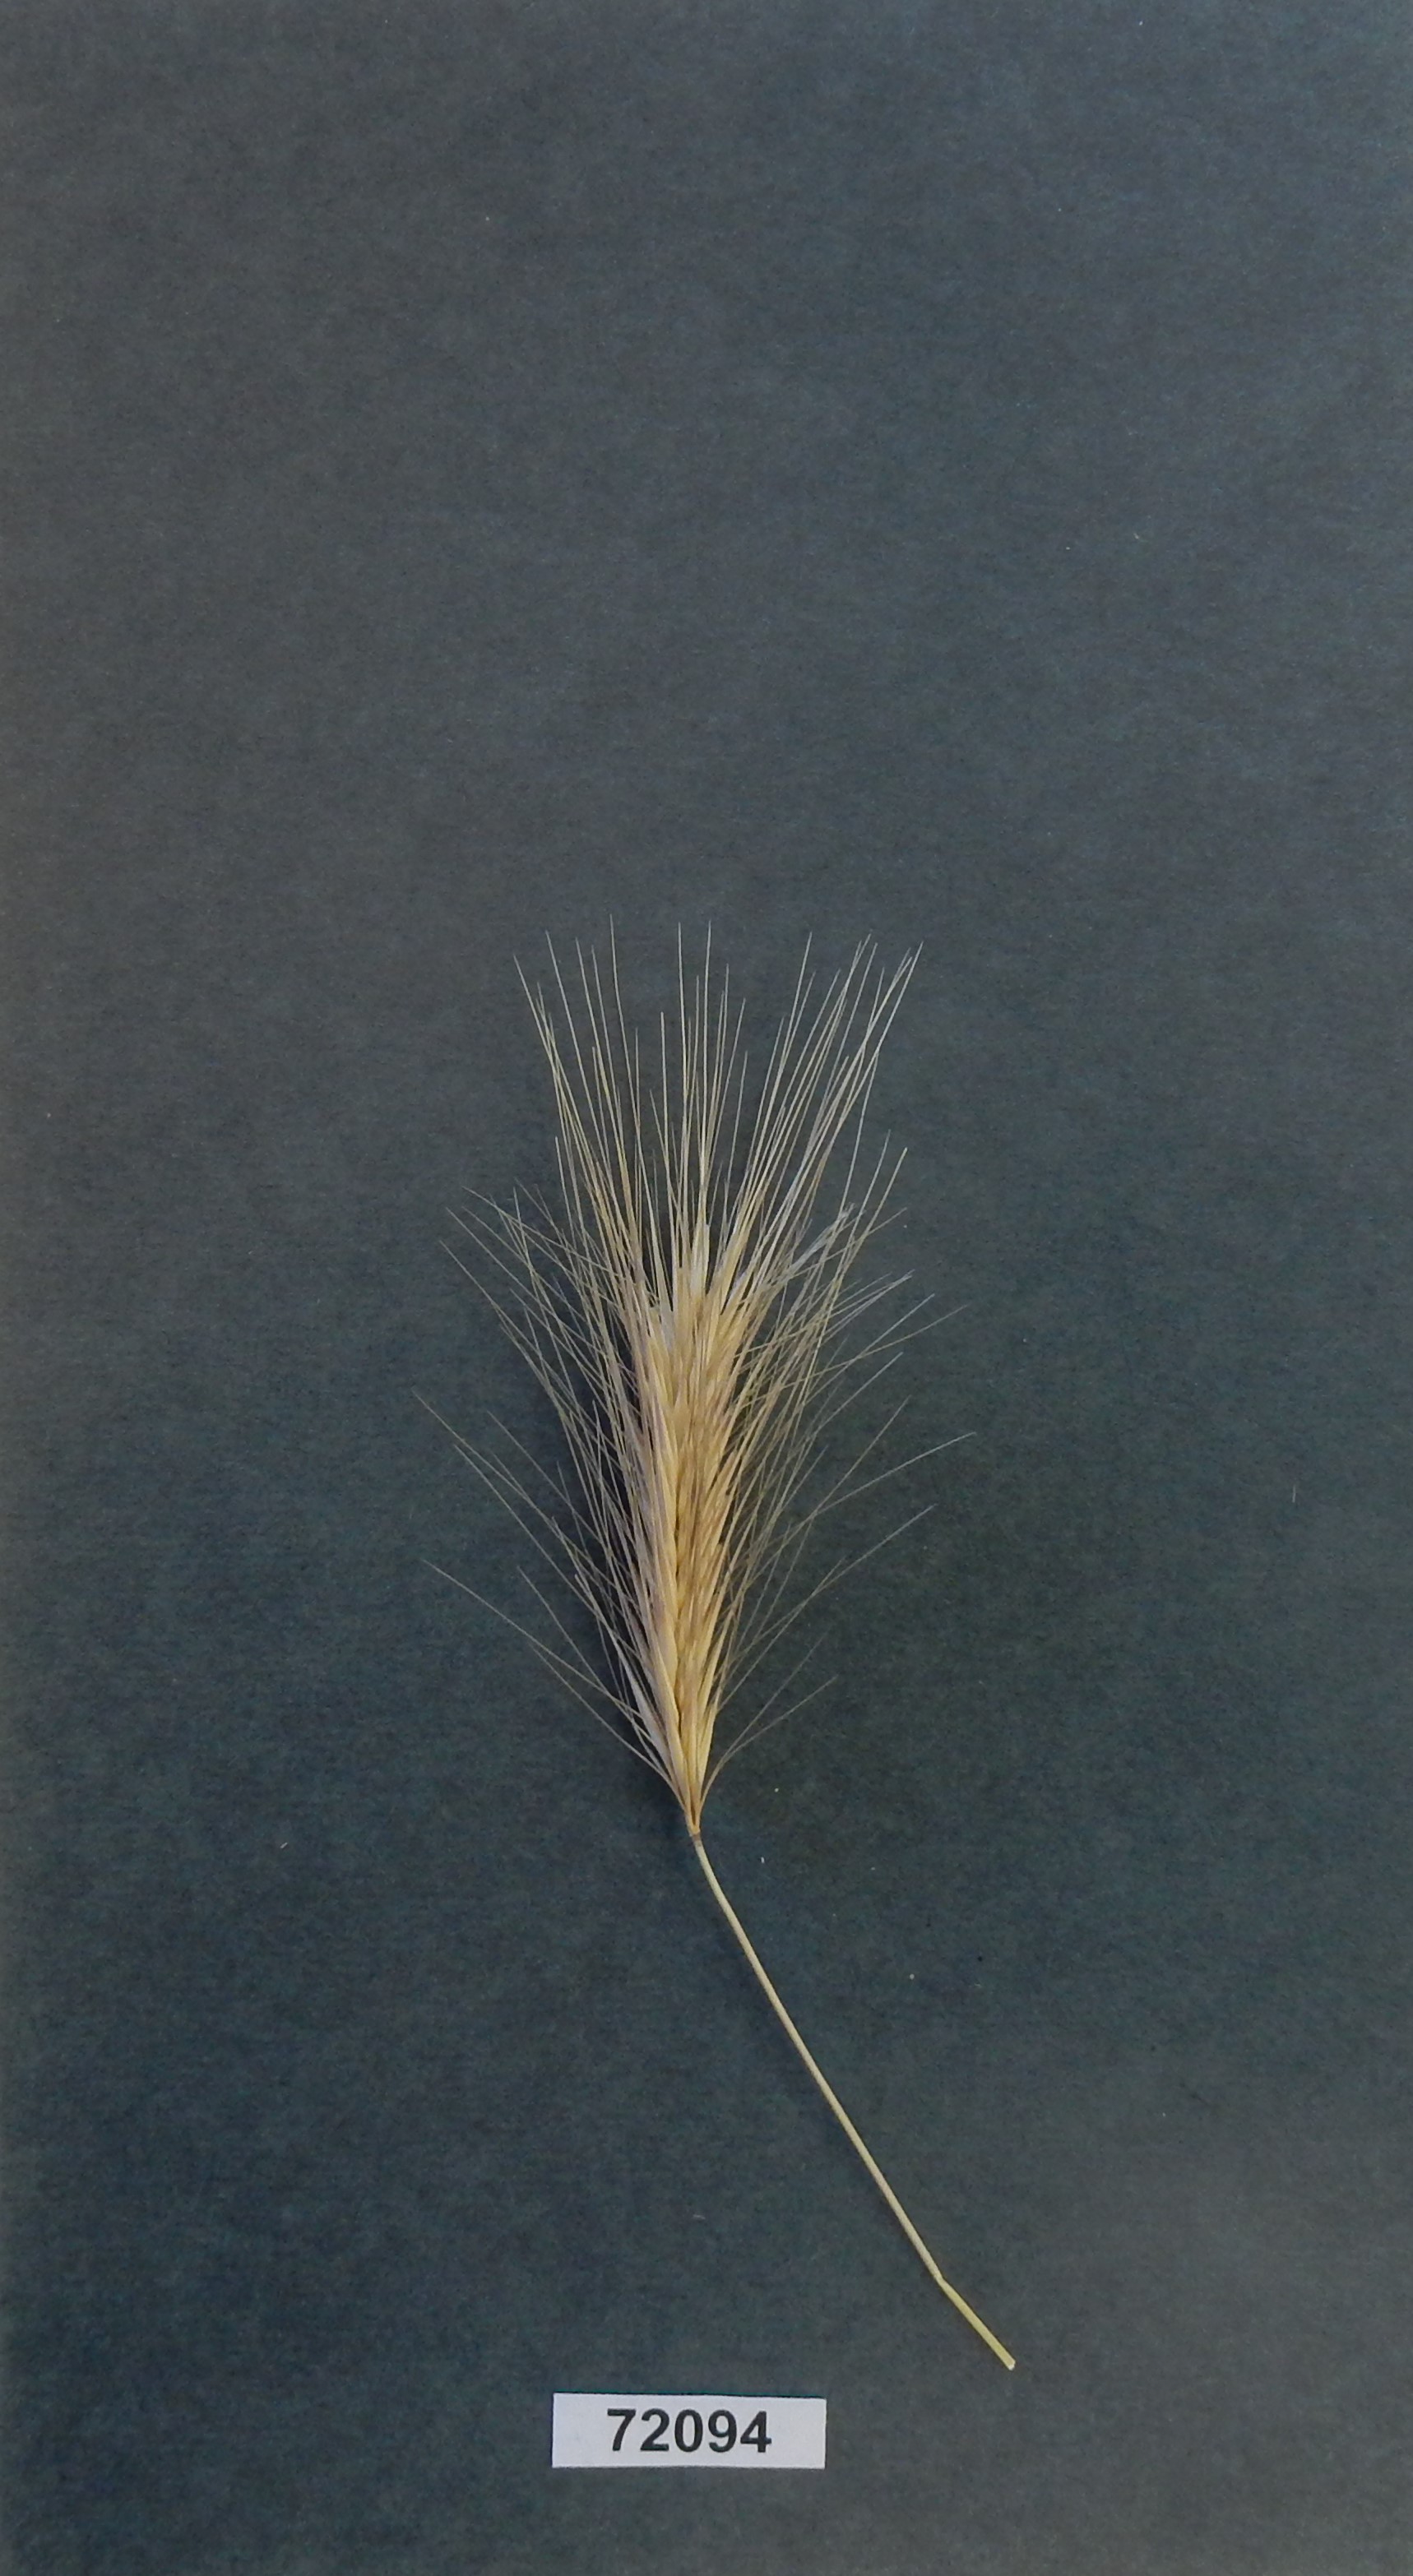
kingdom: Plantae
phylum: Tracheophyta
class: Liliopsida
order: Poales
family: Poaceae
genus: Hordeum
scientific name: Hordeum murinum
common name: Wall Barley
